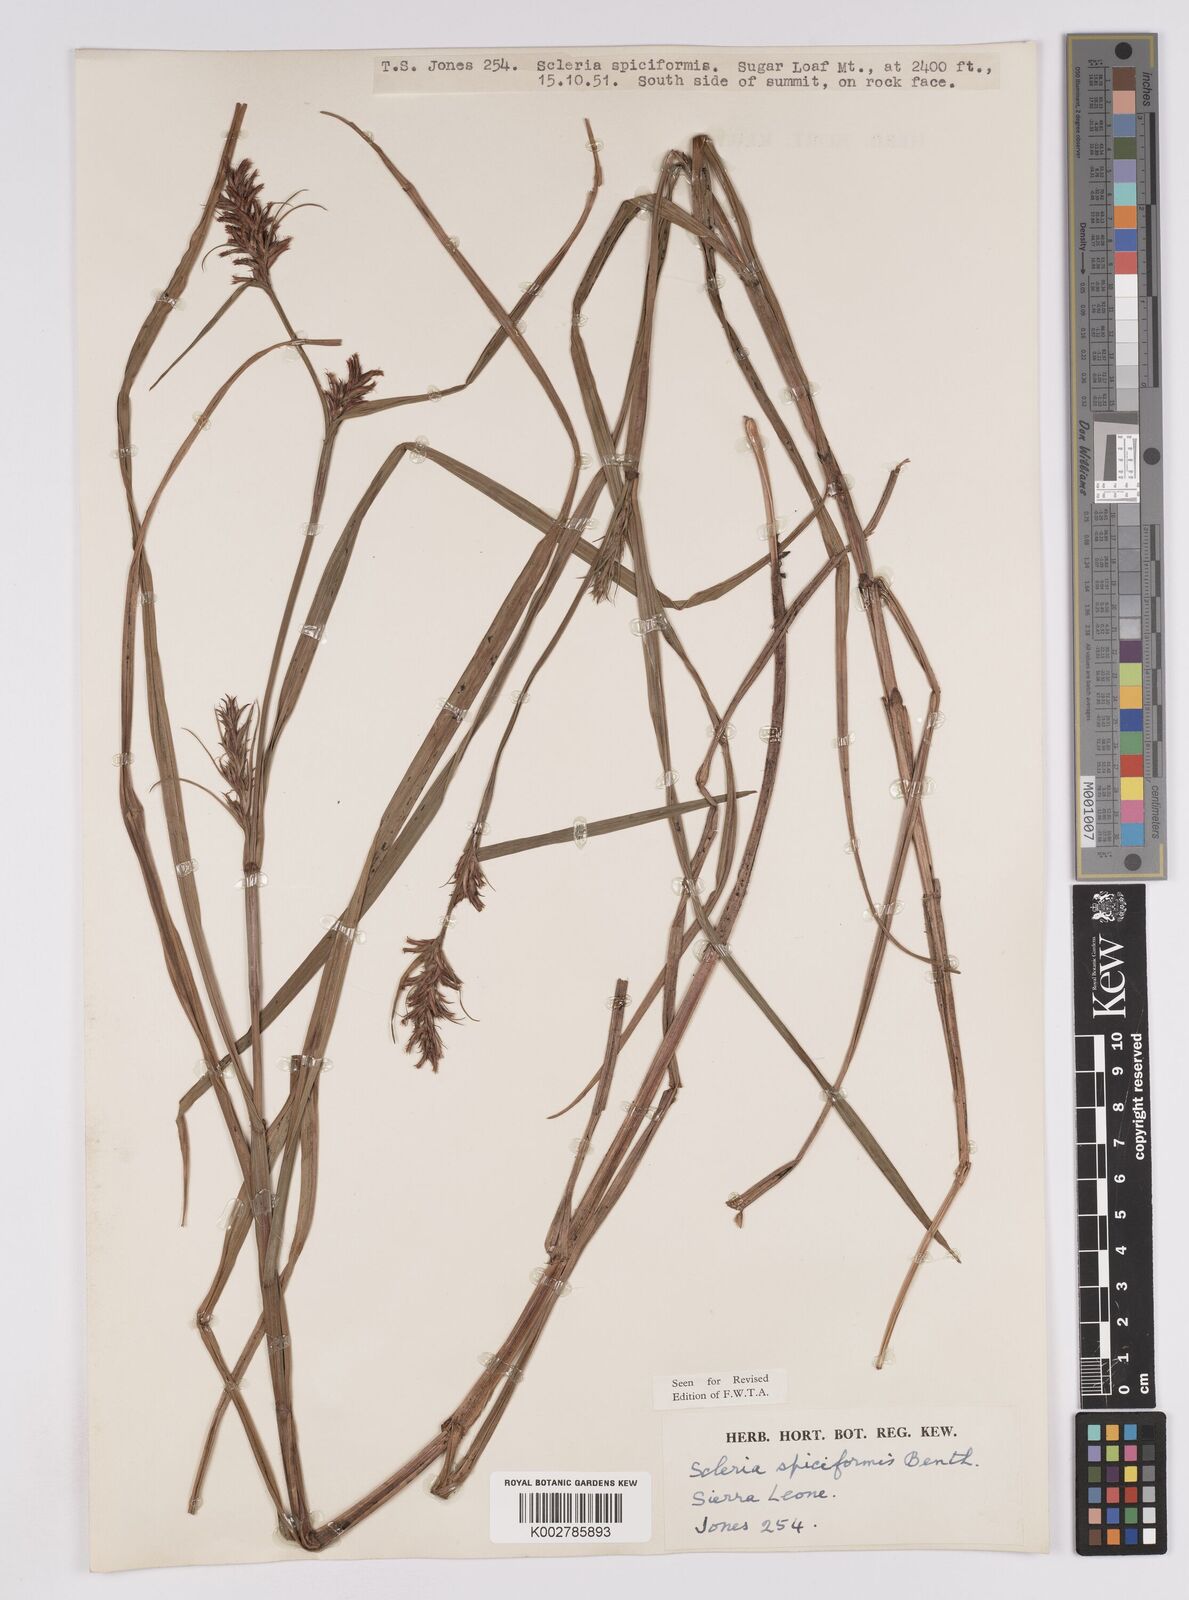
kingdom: Plantae
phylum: Tracheophyta
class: Liliopsida
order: Poales
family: Cyperaceae
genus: Scleria
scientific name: Scleria spiciformis
